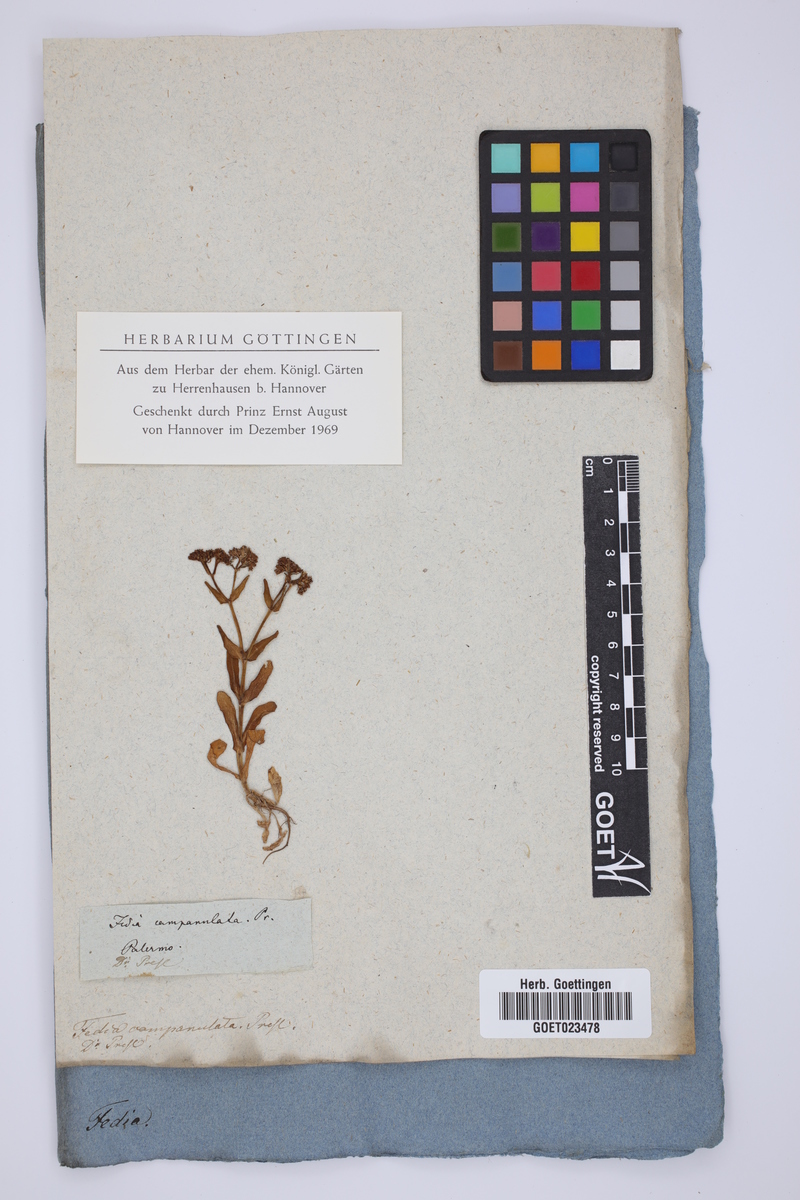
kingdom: Plantae
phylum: Tracheophyta
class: Magnoliopsida
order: Dipsacales
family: Caprifoliaceae
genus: Valerianella
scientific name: Valerianella eriocarpa
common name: Hairy-fruited cornsalad
